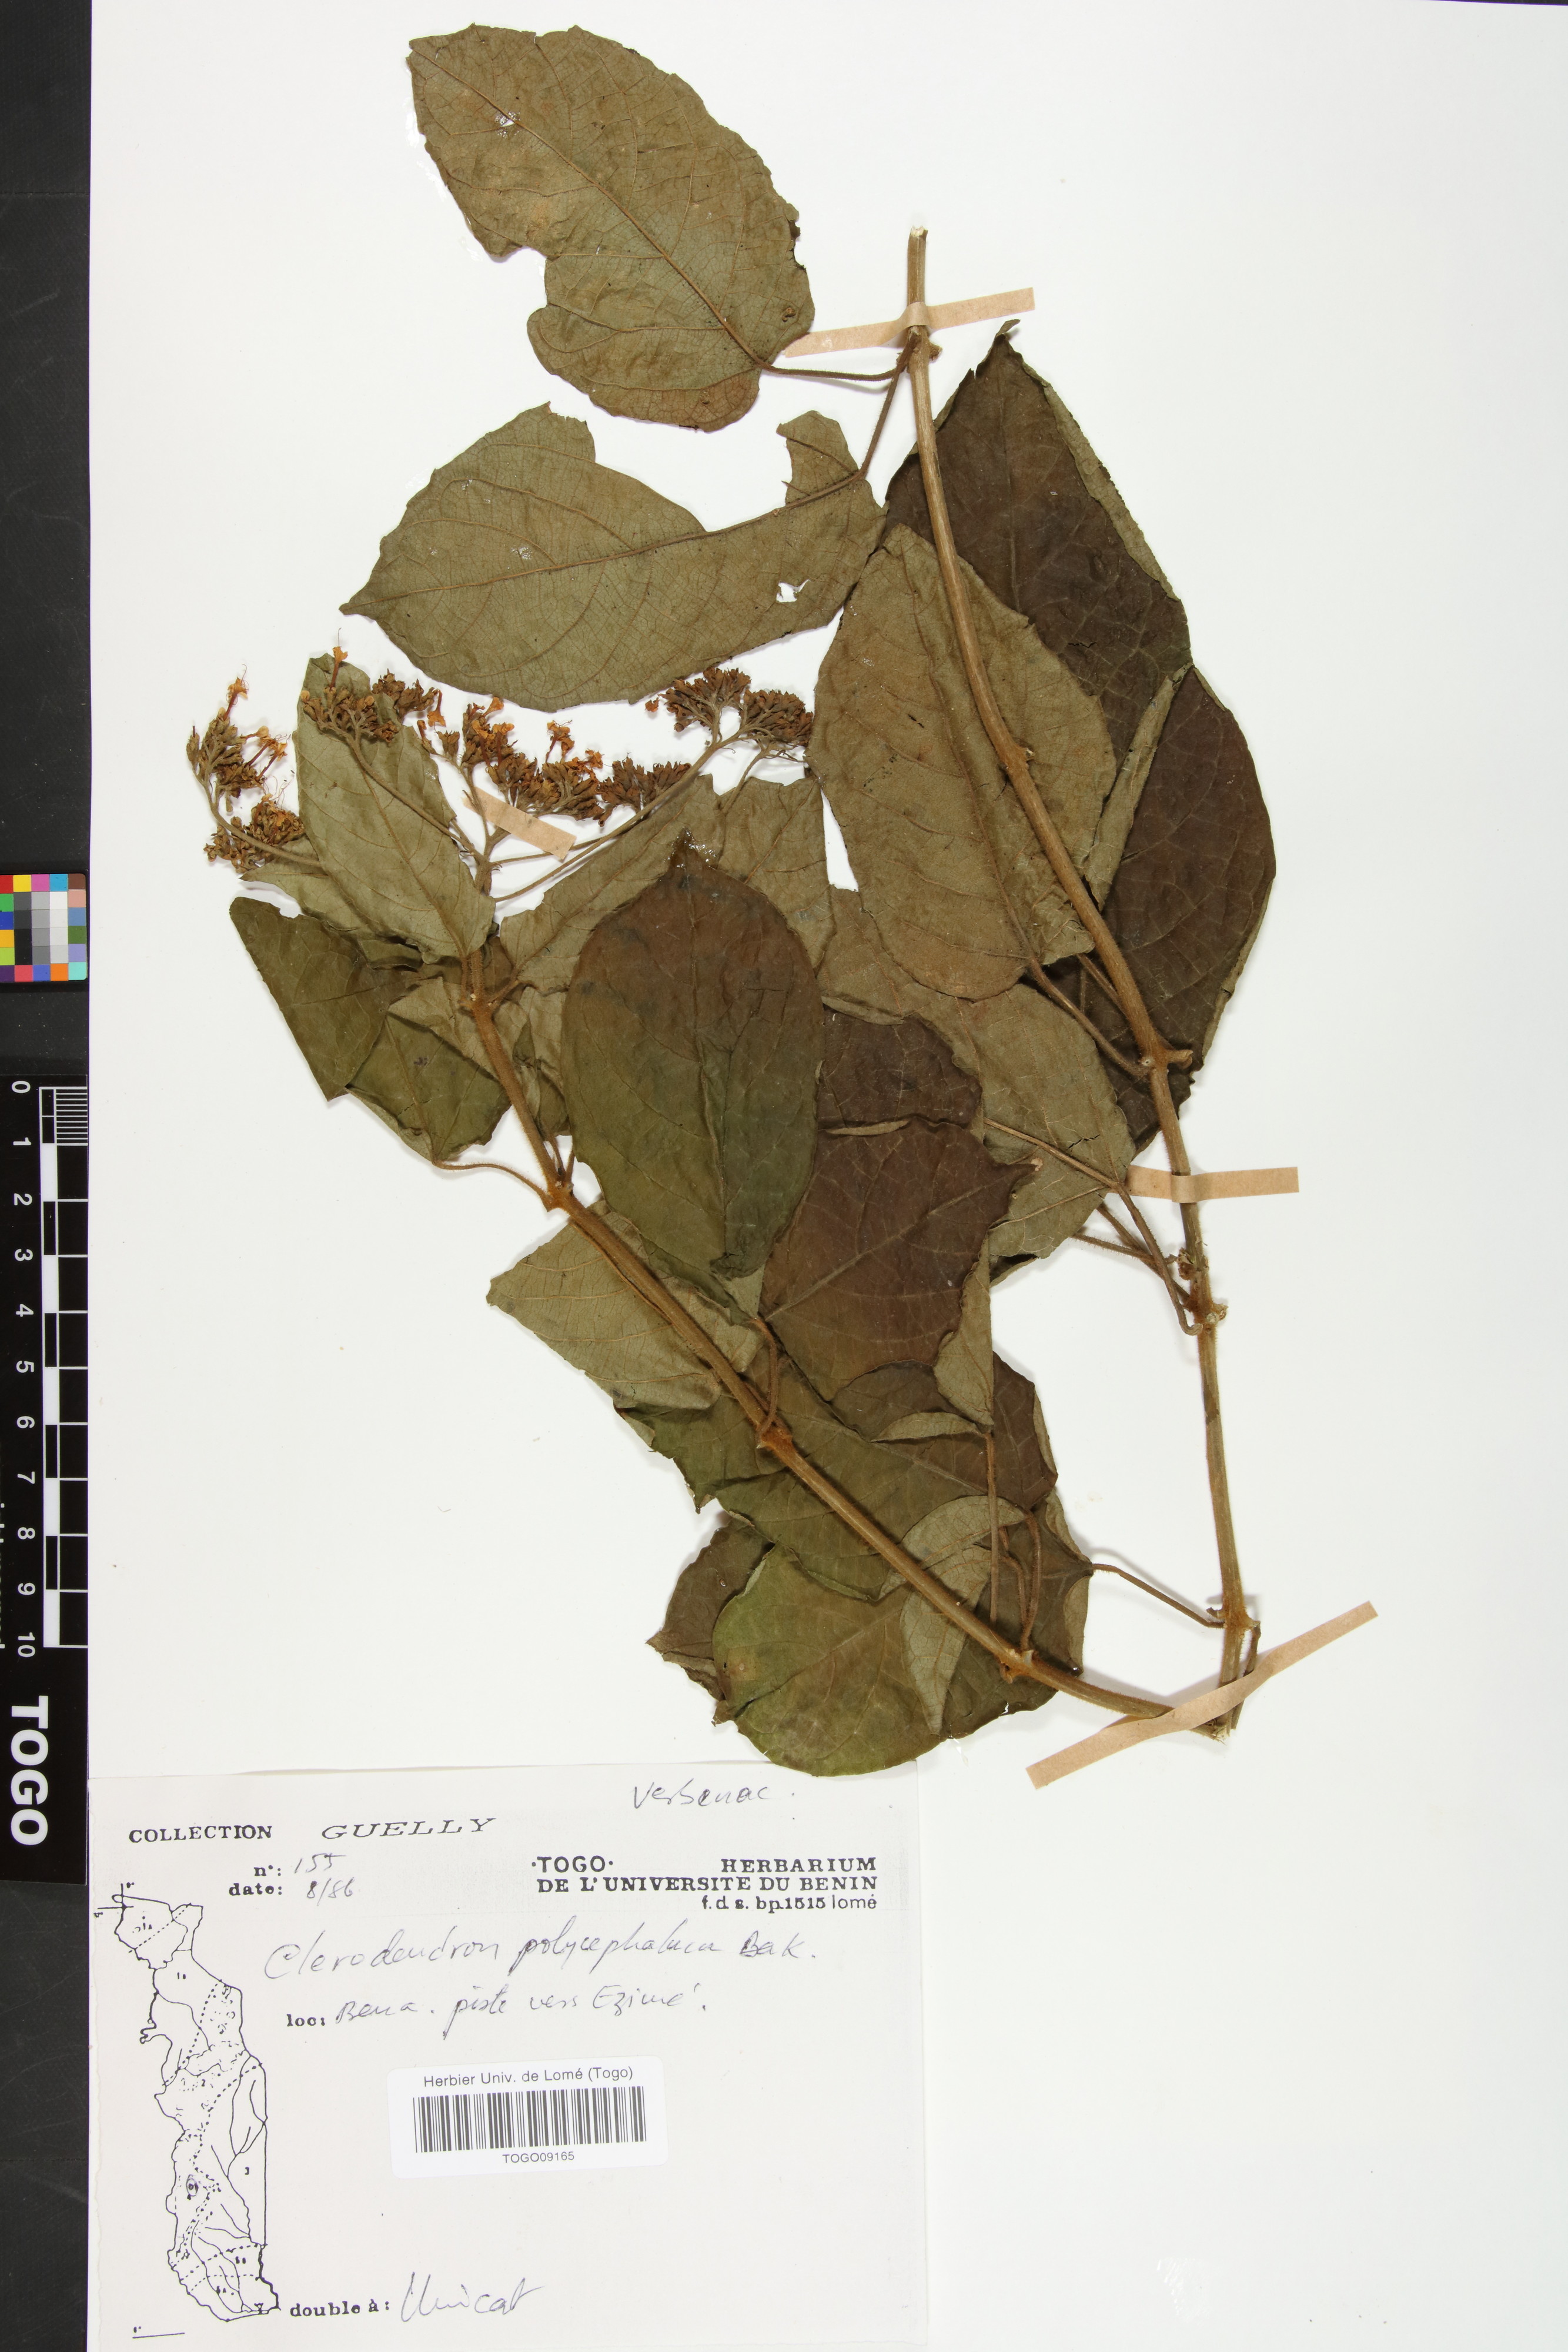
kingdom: Plantae
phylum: Tracheophyta
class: Magnoliopsida
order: Lamiales
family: Lamiaceae
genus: Clerodendrum
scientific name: Clerodendrum polycephalum
